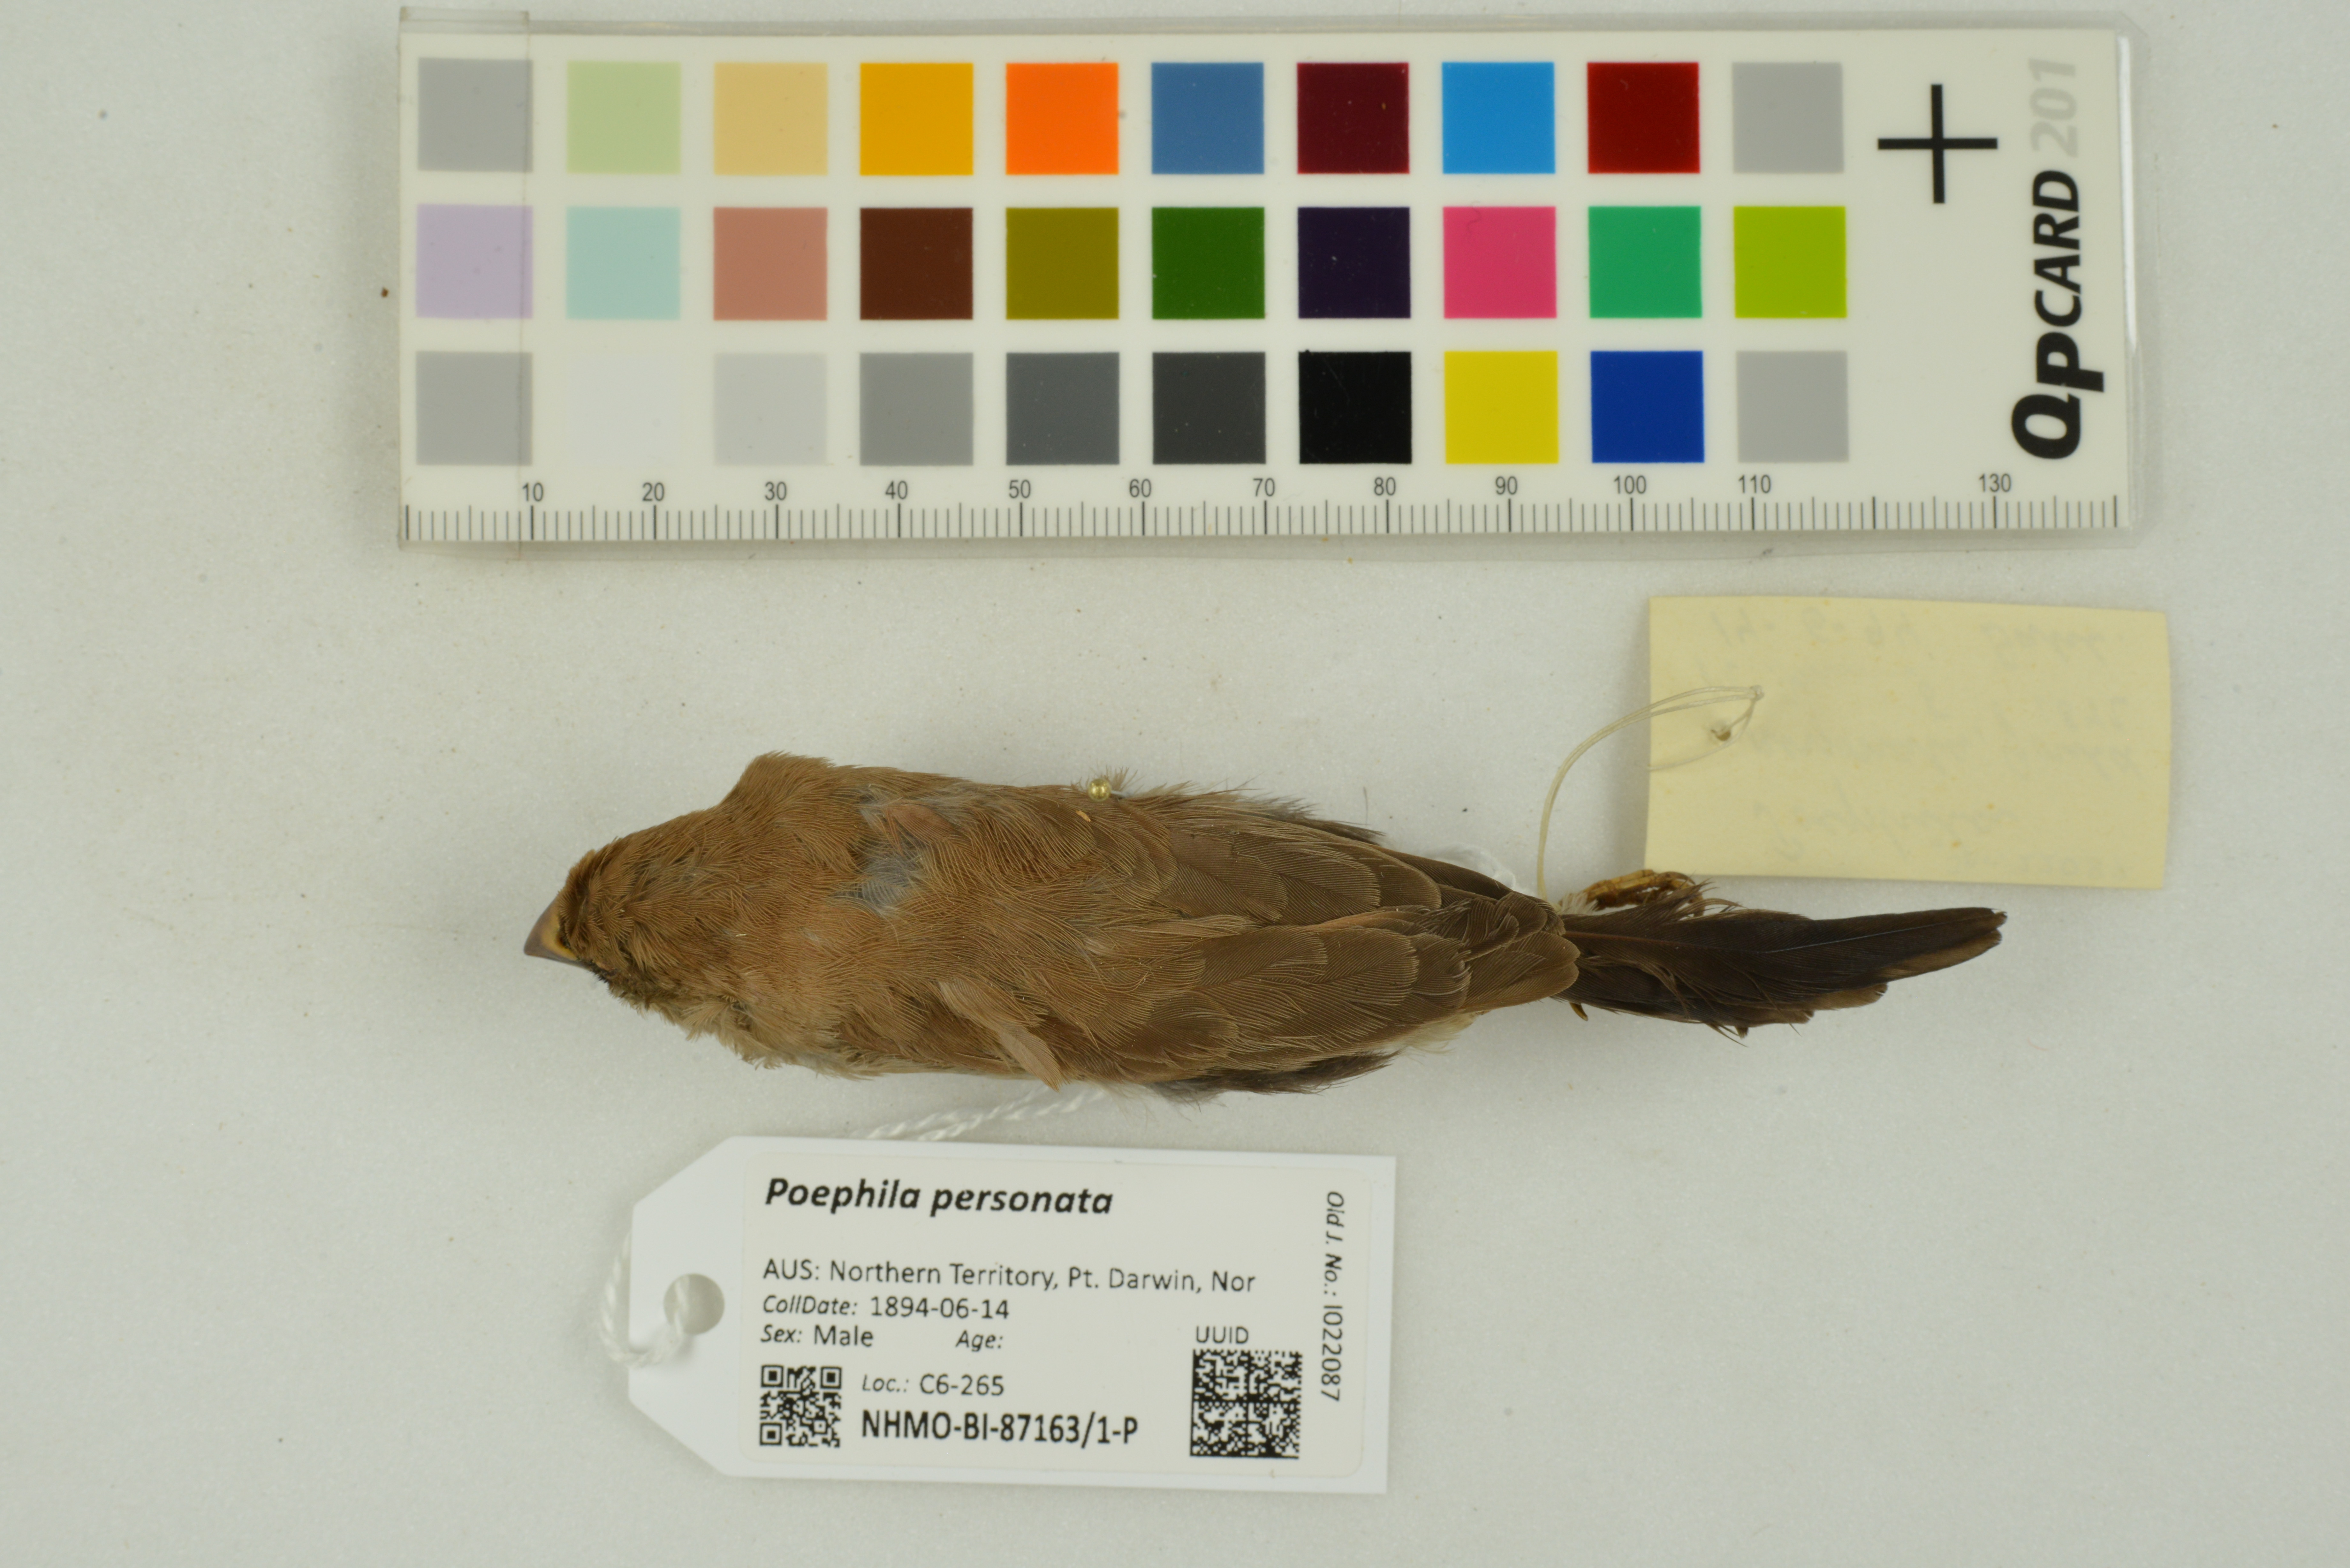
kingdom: Animalia
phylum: Chordata
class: Aves
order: Passeriformes
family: Estrildidae
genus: Poephila
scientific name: Poephila personata
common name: Masked finch
